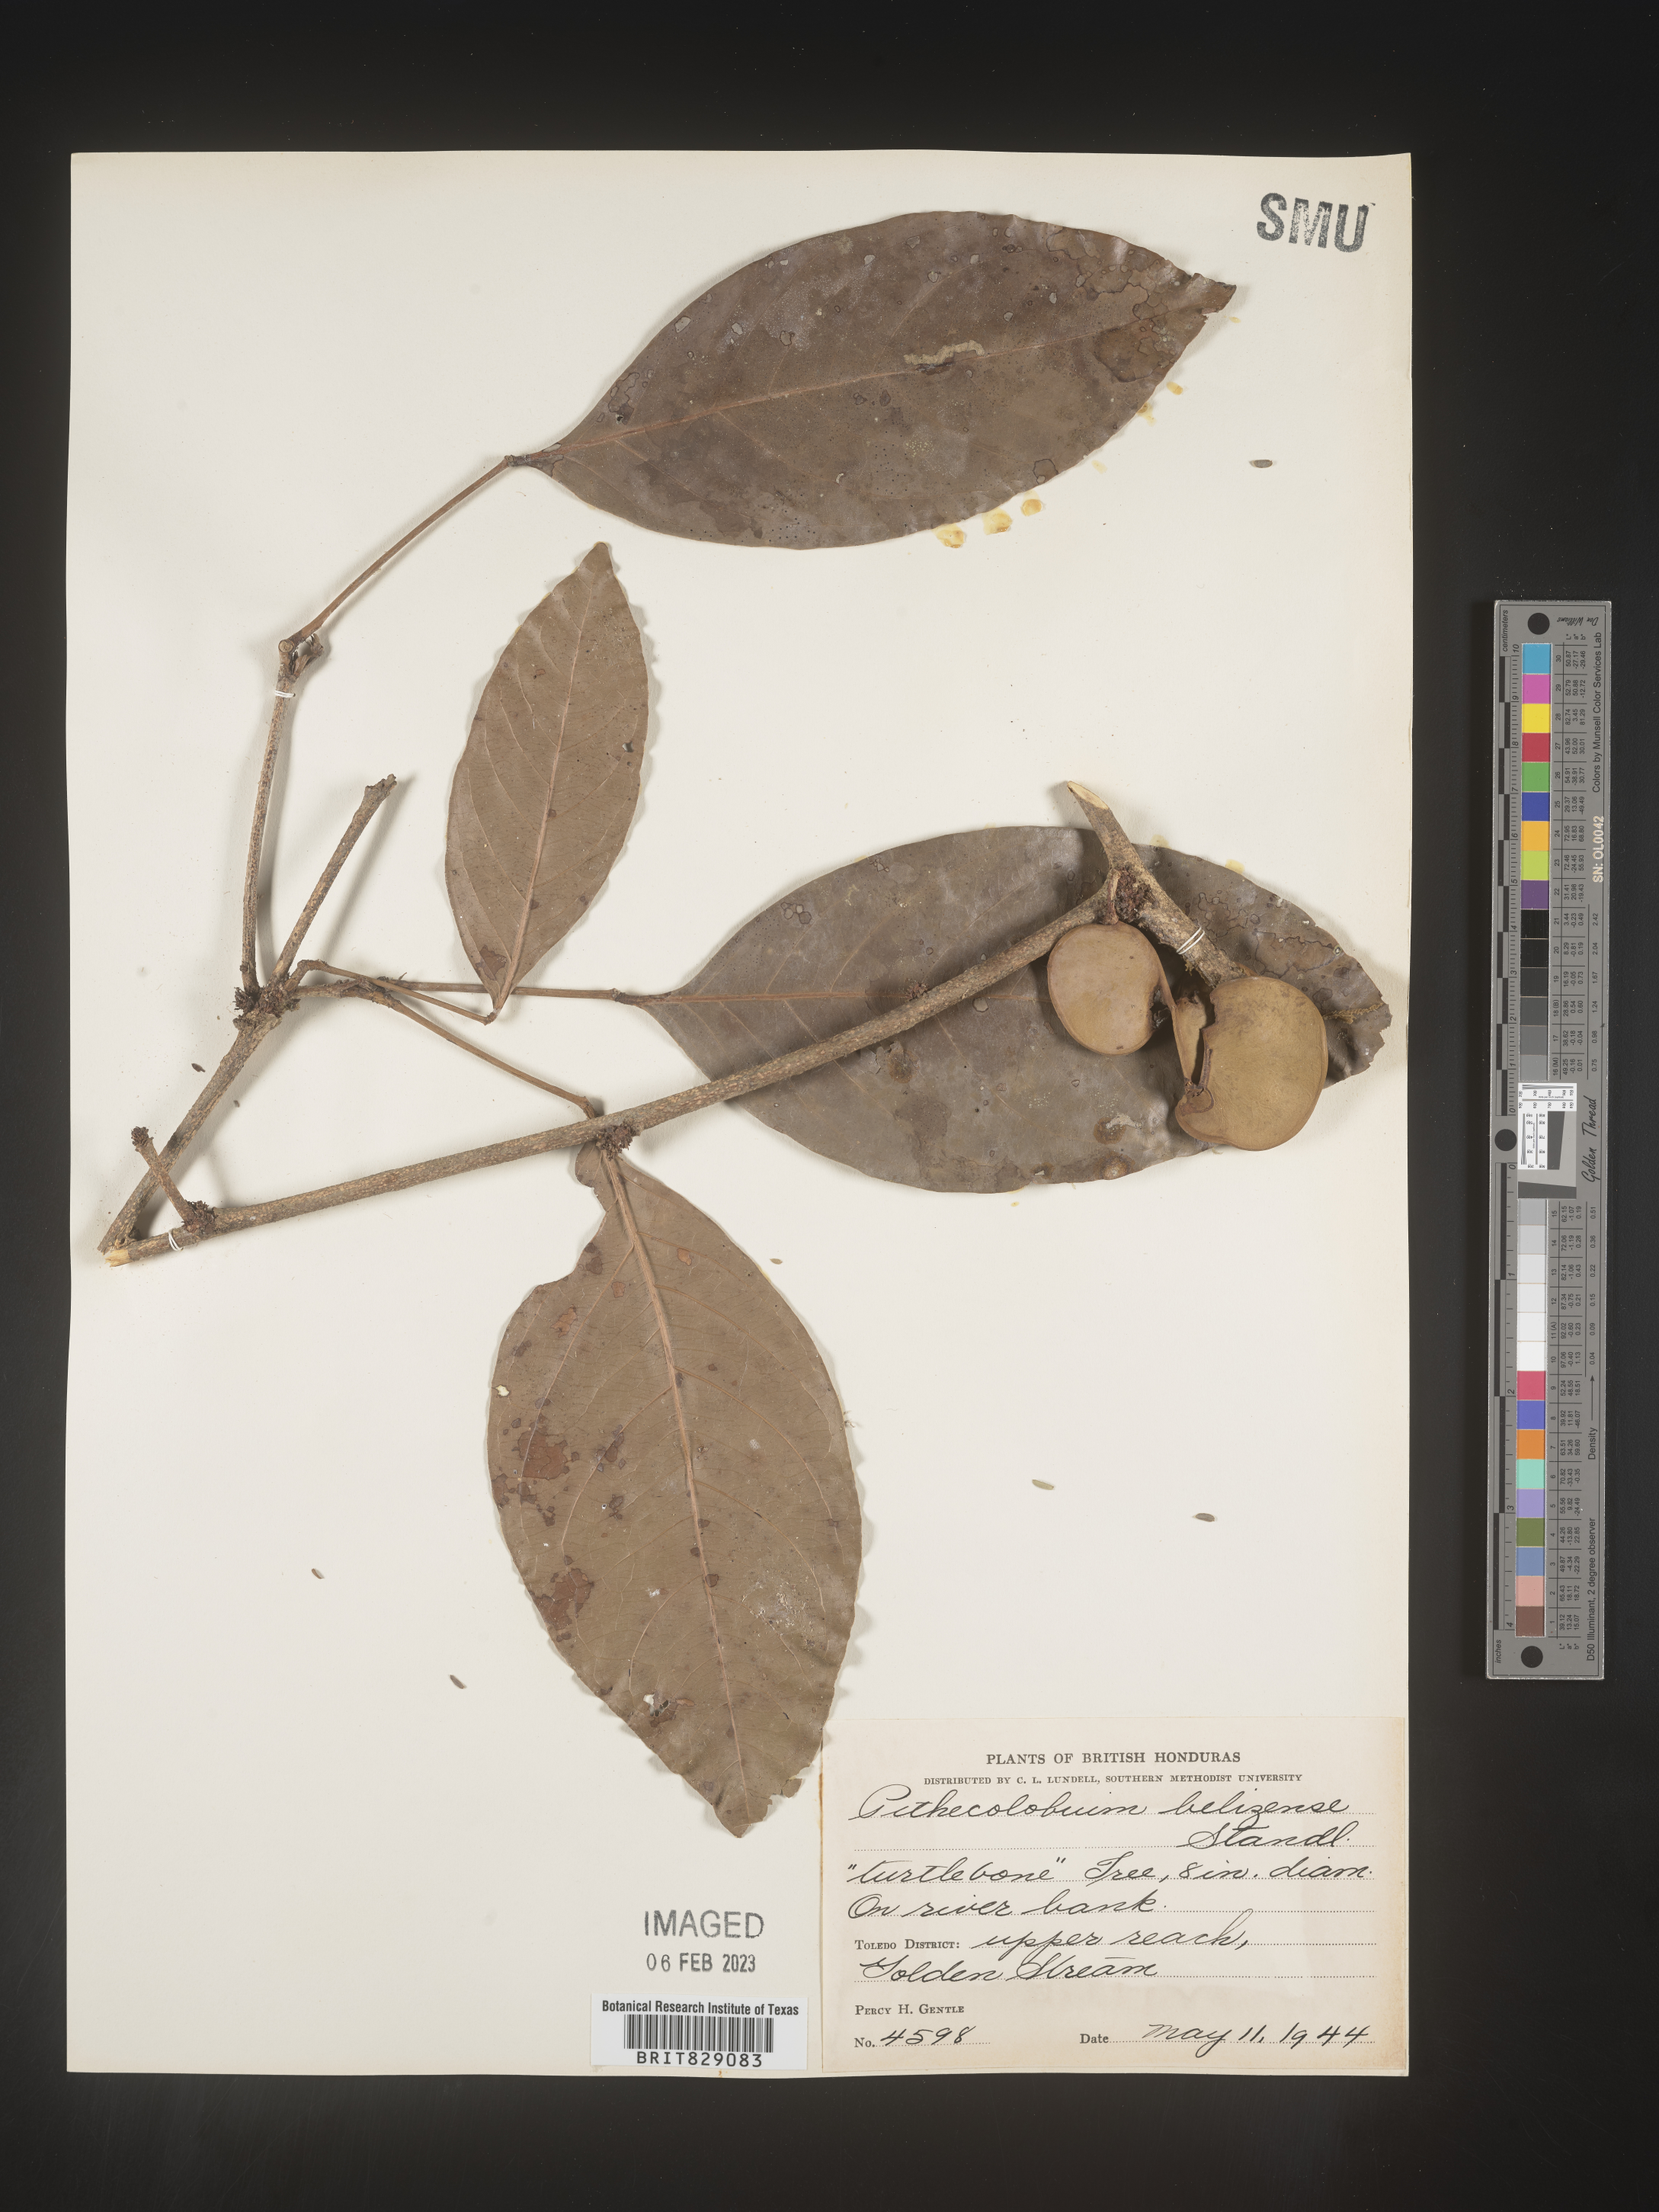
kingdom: Plantae
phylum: Tracheophyta
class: Magnoliopsida
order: Fabales
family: Fabaceae
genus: Pithecellobium
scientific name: Pithecellobium
